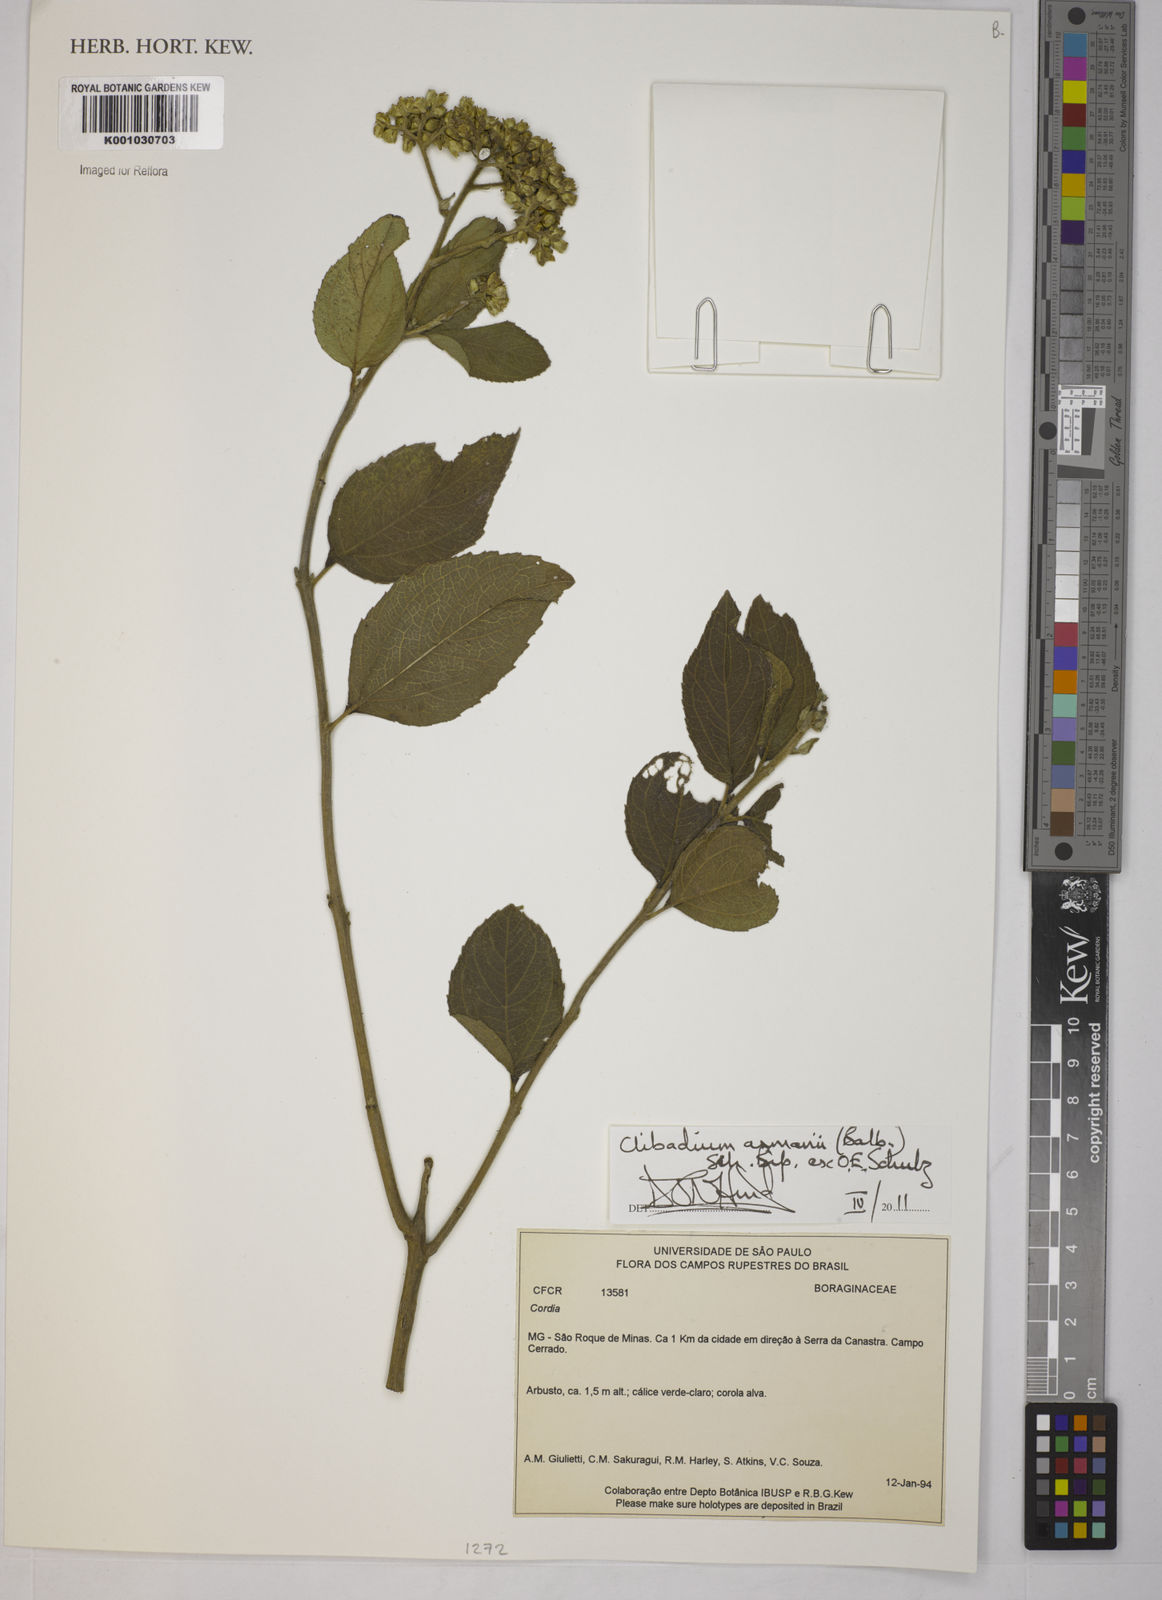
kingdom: Plantae
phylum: Tracheophyta
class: Magnoliopsida
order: Asterales
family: Asteraceae
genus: Clibadium
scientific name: Clibadium armanii
